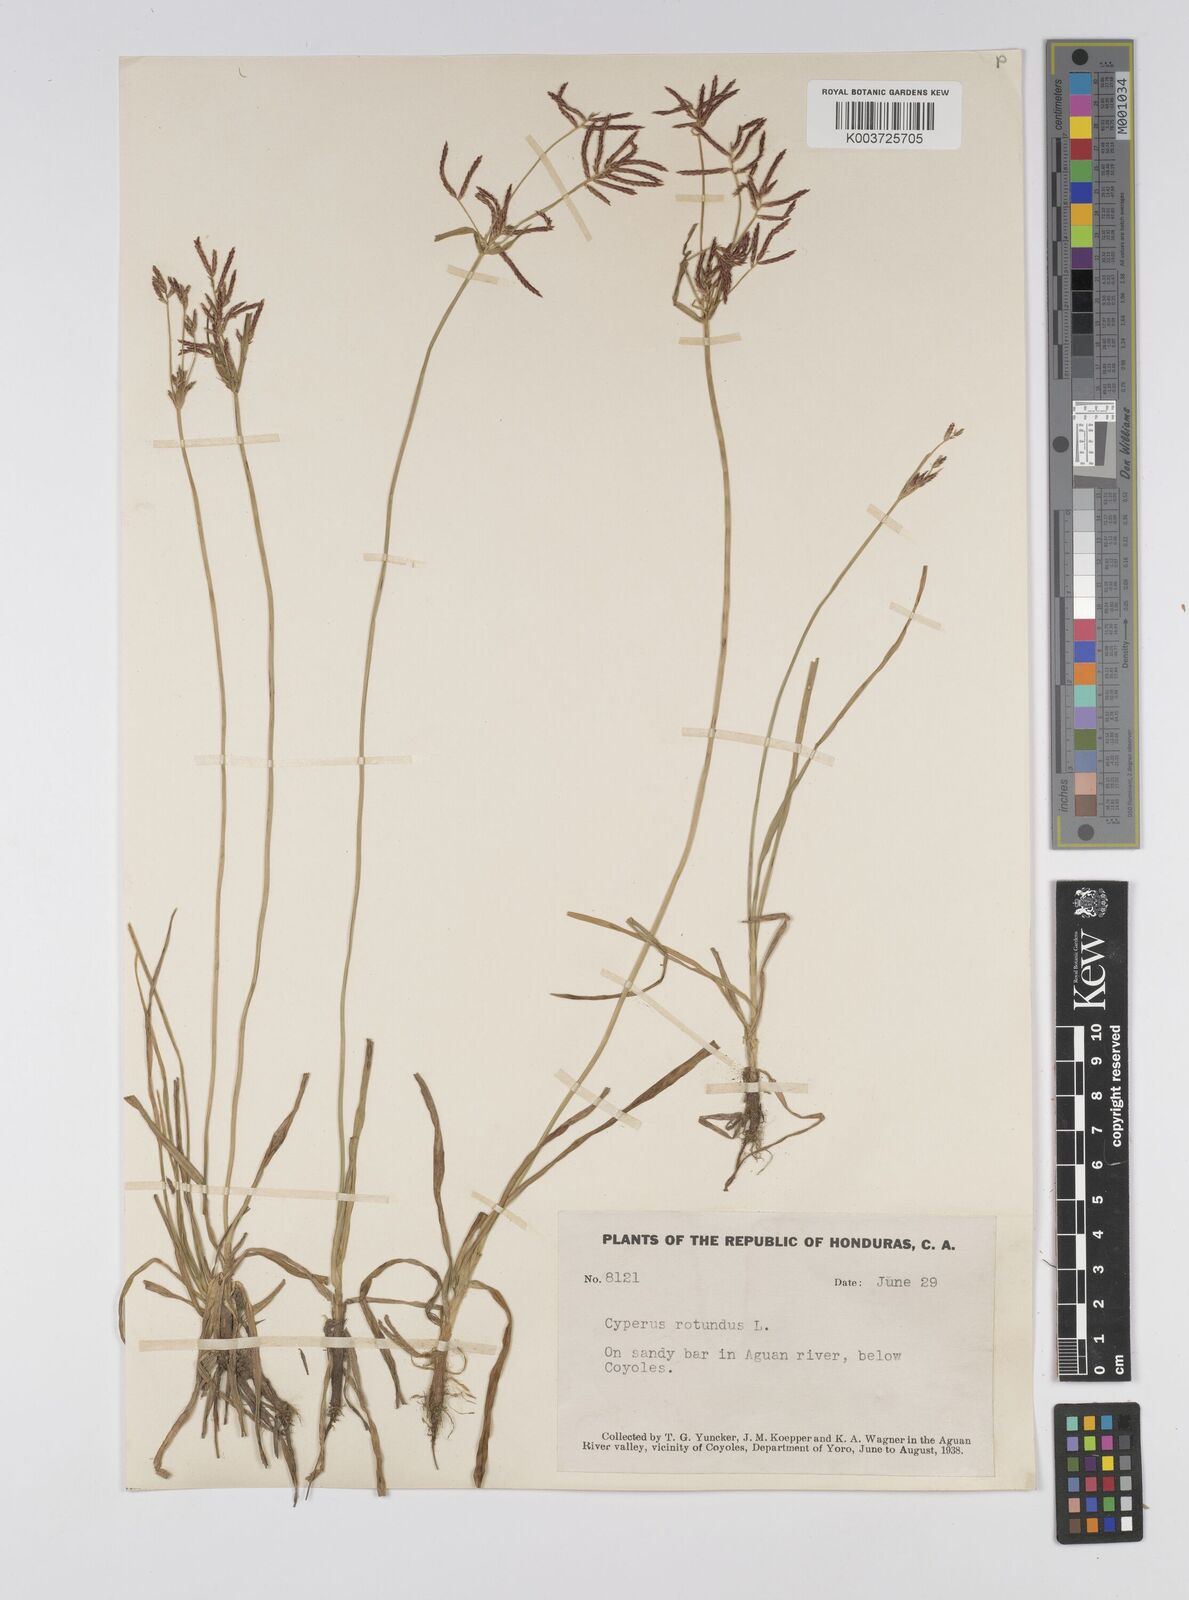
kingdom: Plantae
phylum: Tracheophyta
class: Liliopsida
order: Poales
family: Cyperaceae
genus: Cyperus
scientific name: Cyperus rotundus
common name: Nutgrass
